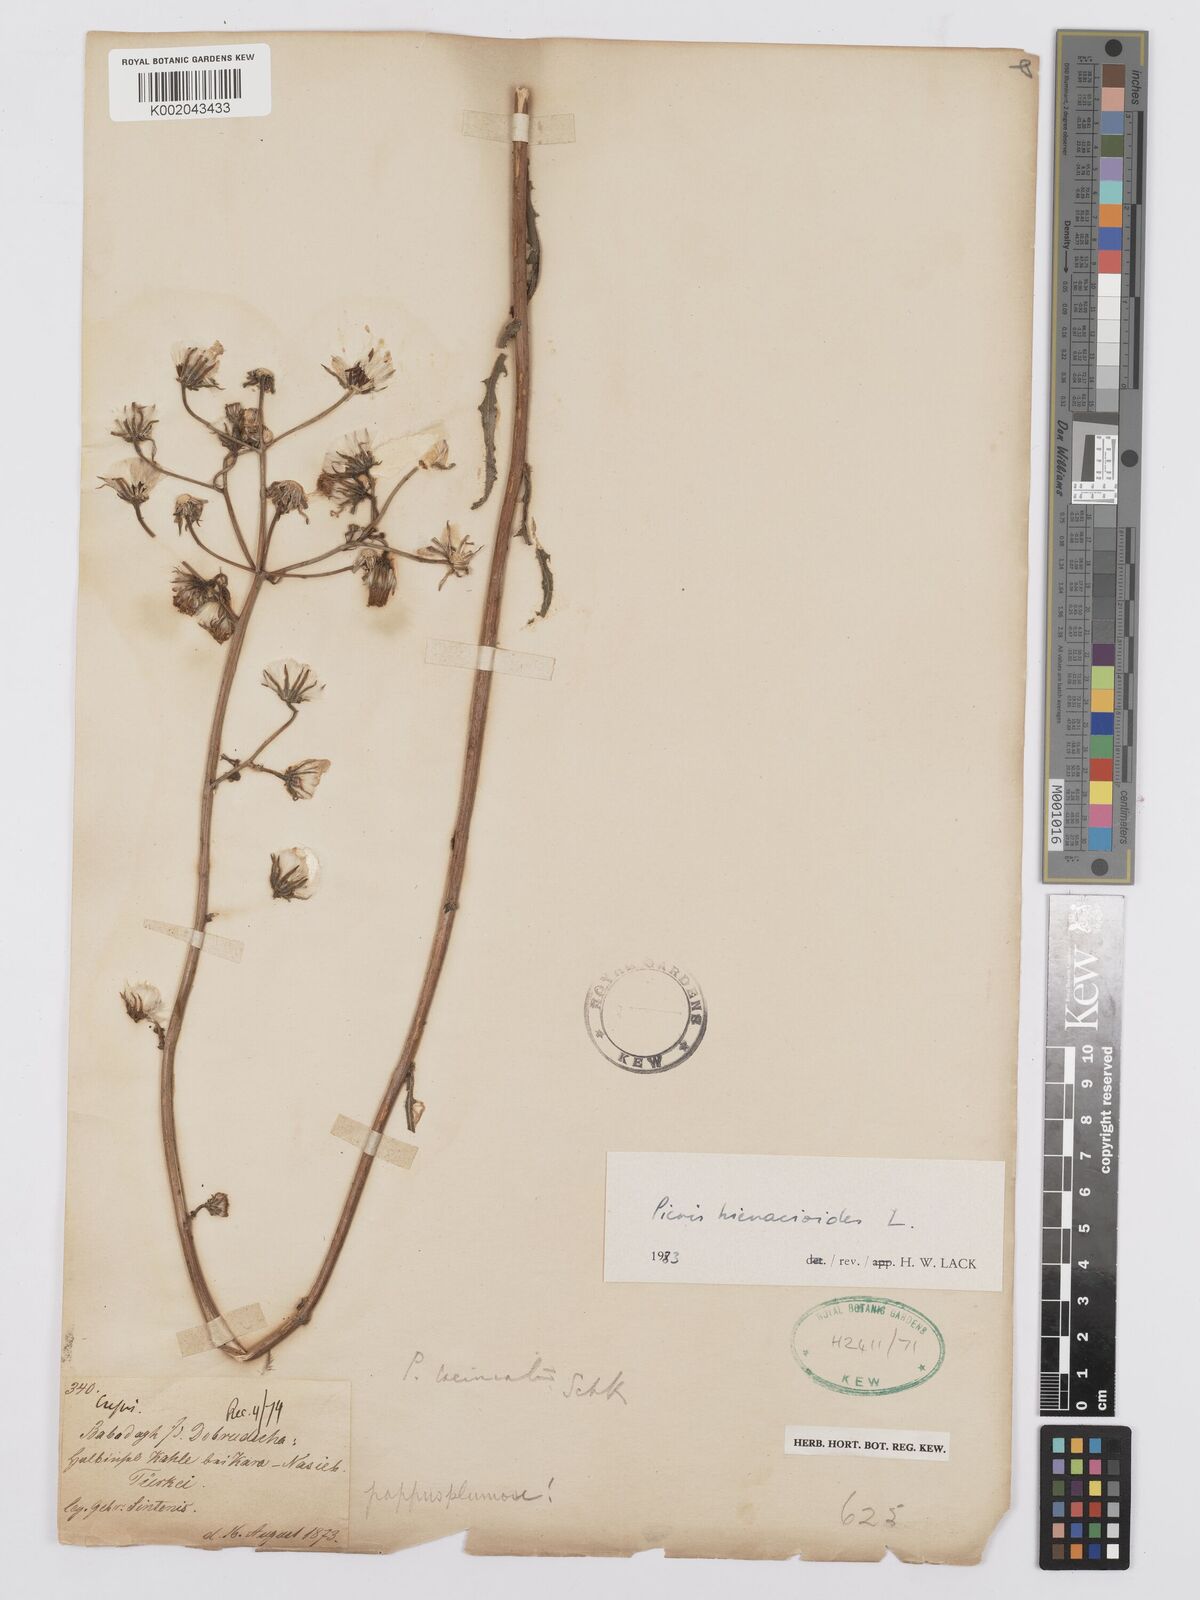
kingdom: Plantae
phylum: Tracheophyta
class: Magnoliopsida
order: Asterales
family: Asteraceae
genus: Picris
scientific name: Picris hieracioides
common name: Hawkweed oxtongue
